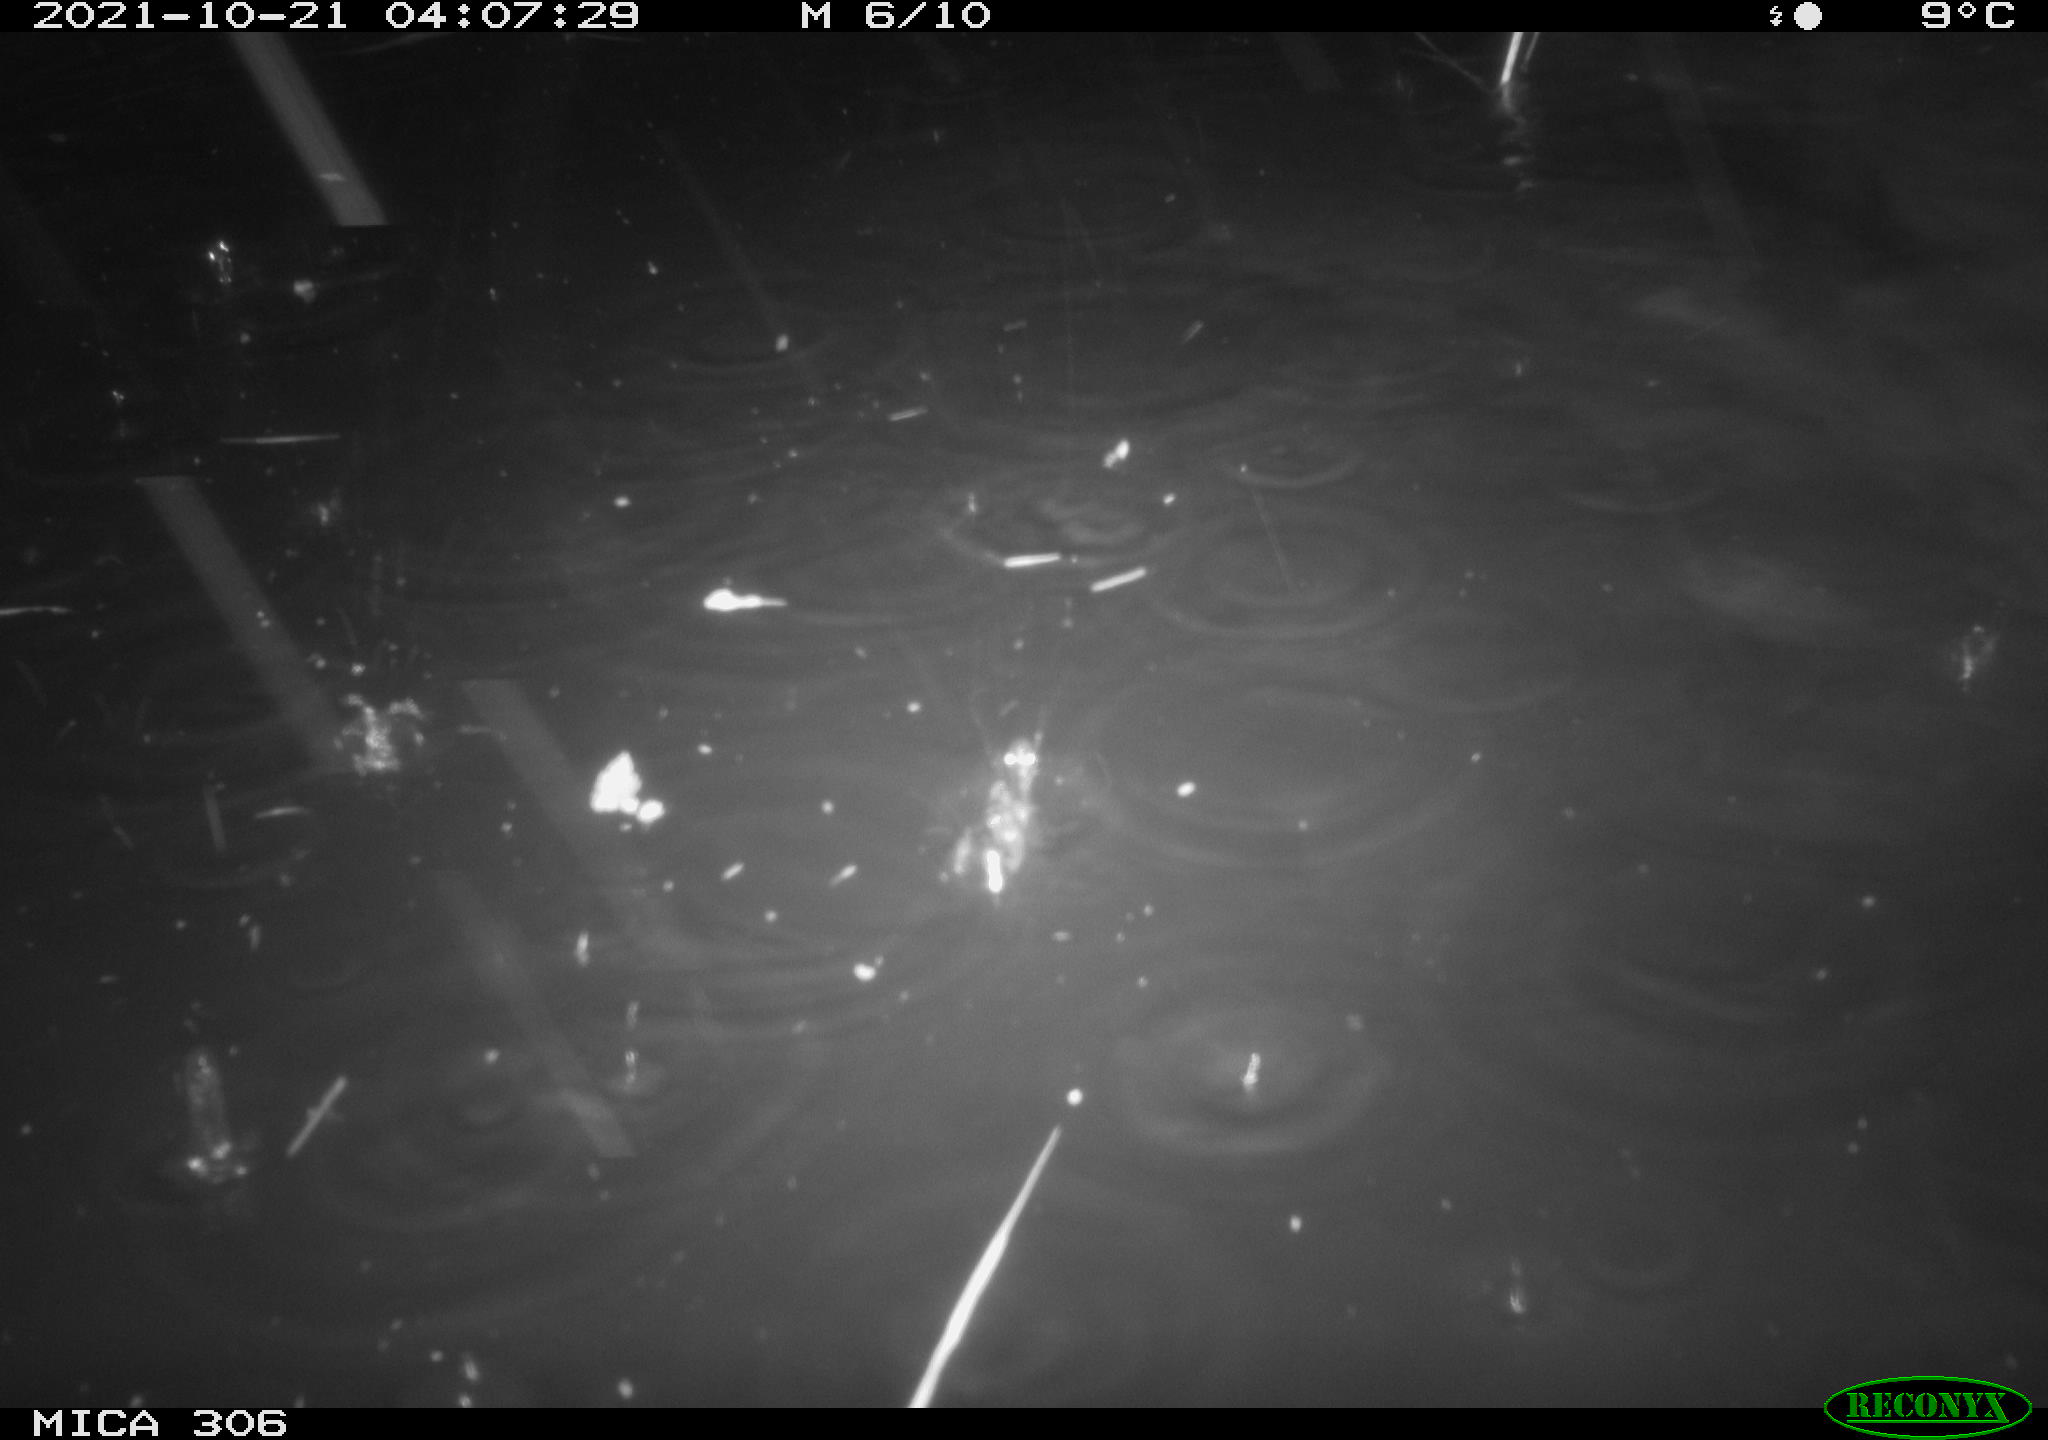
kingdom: Animalia
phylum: Chordata
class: Mammalia
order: Rodentia
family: Muridae
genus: Rattus
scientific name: Rattus norvegicus
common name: Brown rat
